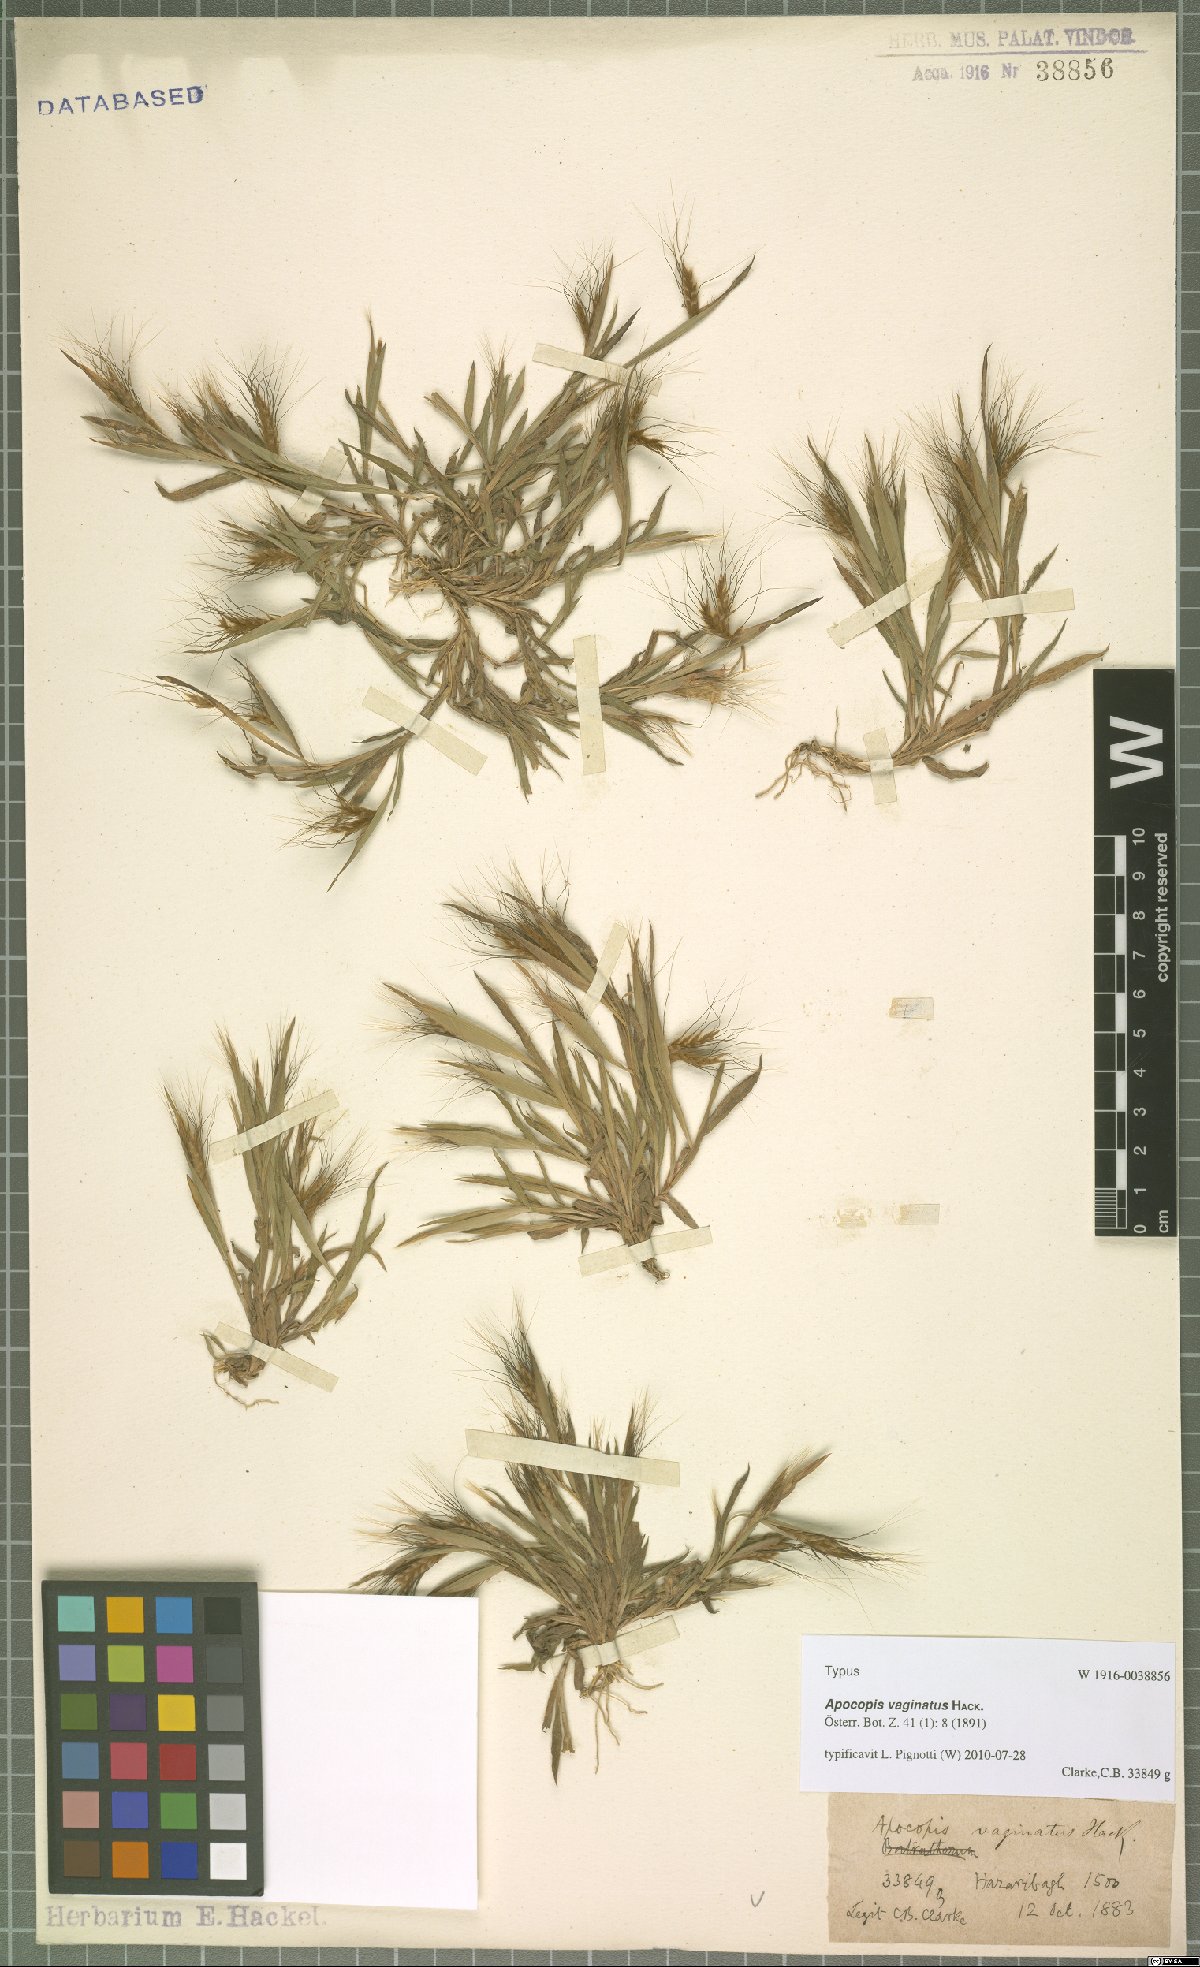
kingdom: Plantae
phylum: Tracheophyta
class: Liliopsida
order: Poales
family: Poaceae
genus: Apocopis
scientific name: Apocopis vaginatus
